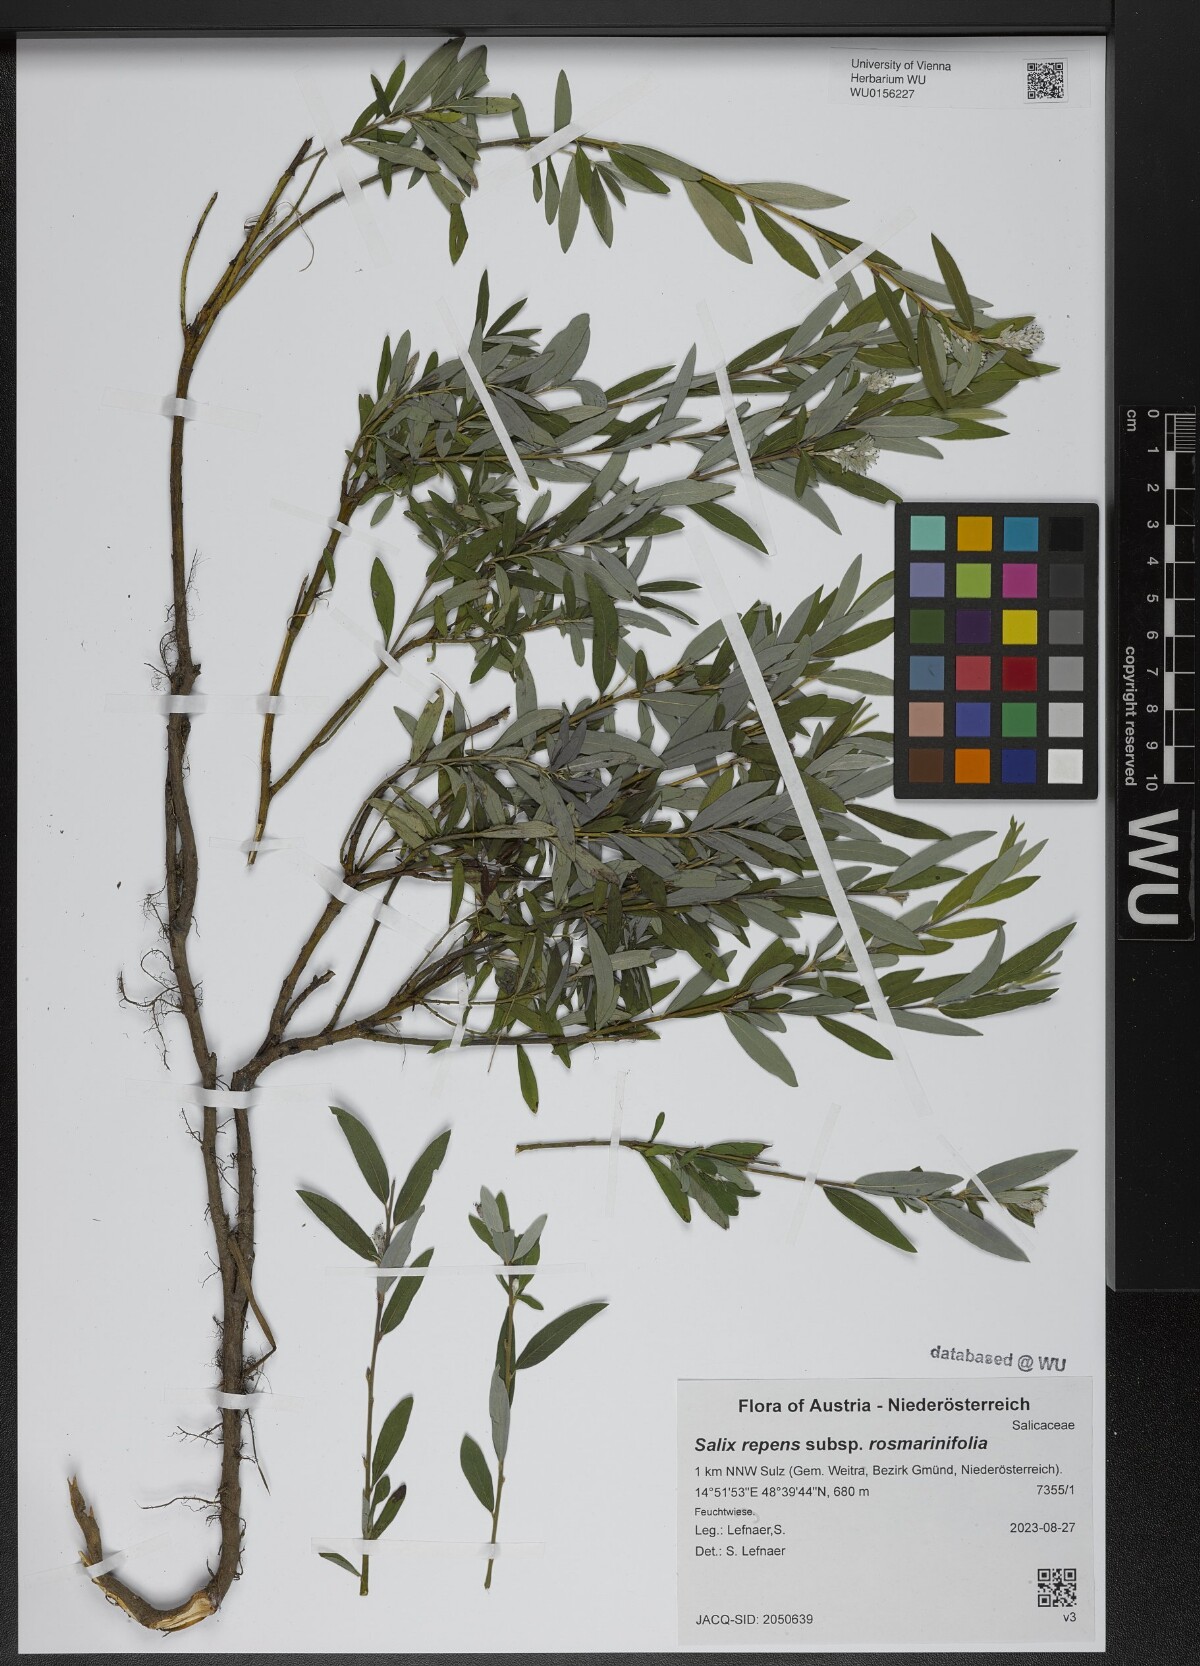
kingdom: Plantae
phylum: Tracheophyta
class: Magnoliopsida
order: Malpighiales
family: Salicaceae
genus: Salix
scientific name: Salix repens
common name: Creeping willow
